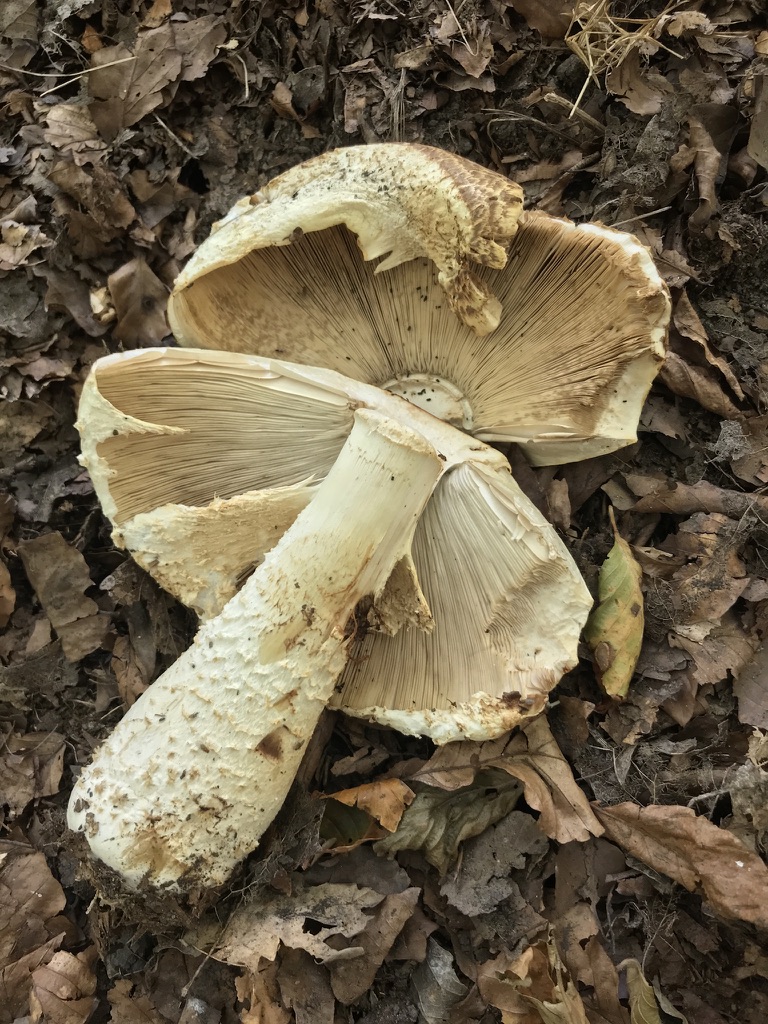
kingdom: Fungi
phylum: Basidiomycota
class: Agaricomycetes
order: Agaricales
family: Agaricaceae
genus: Agaricus
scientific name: Agaricus augustus
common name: prægtig champignon
